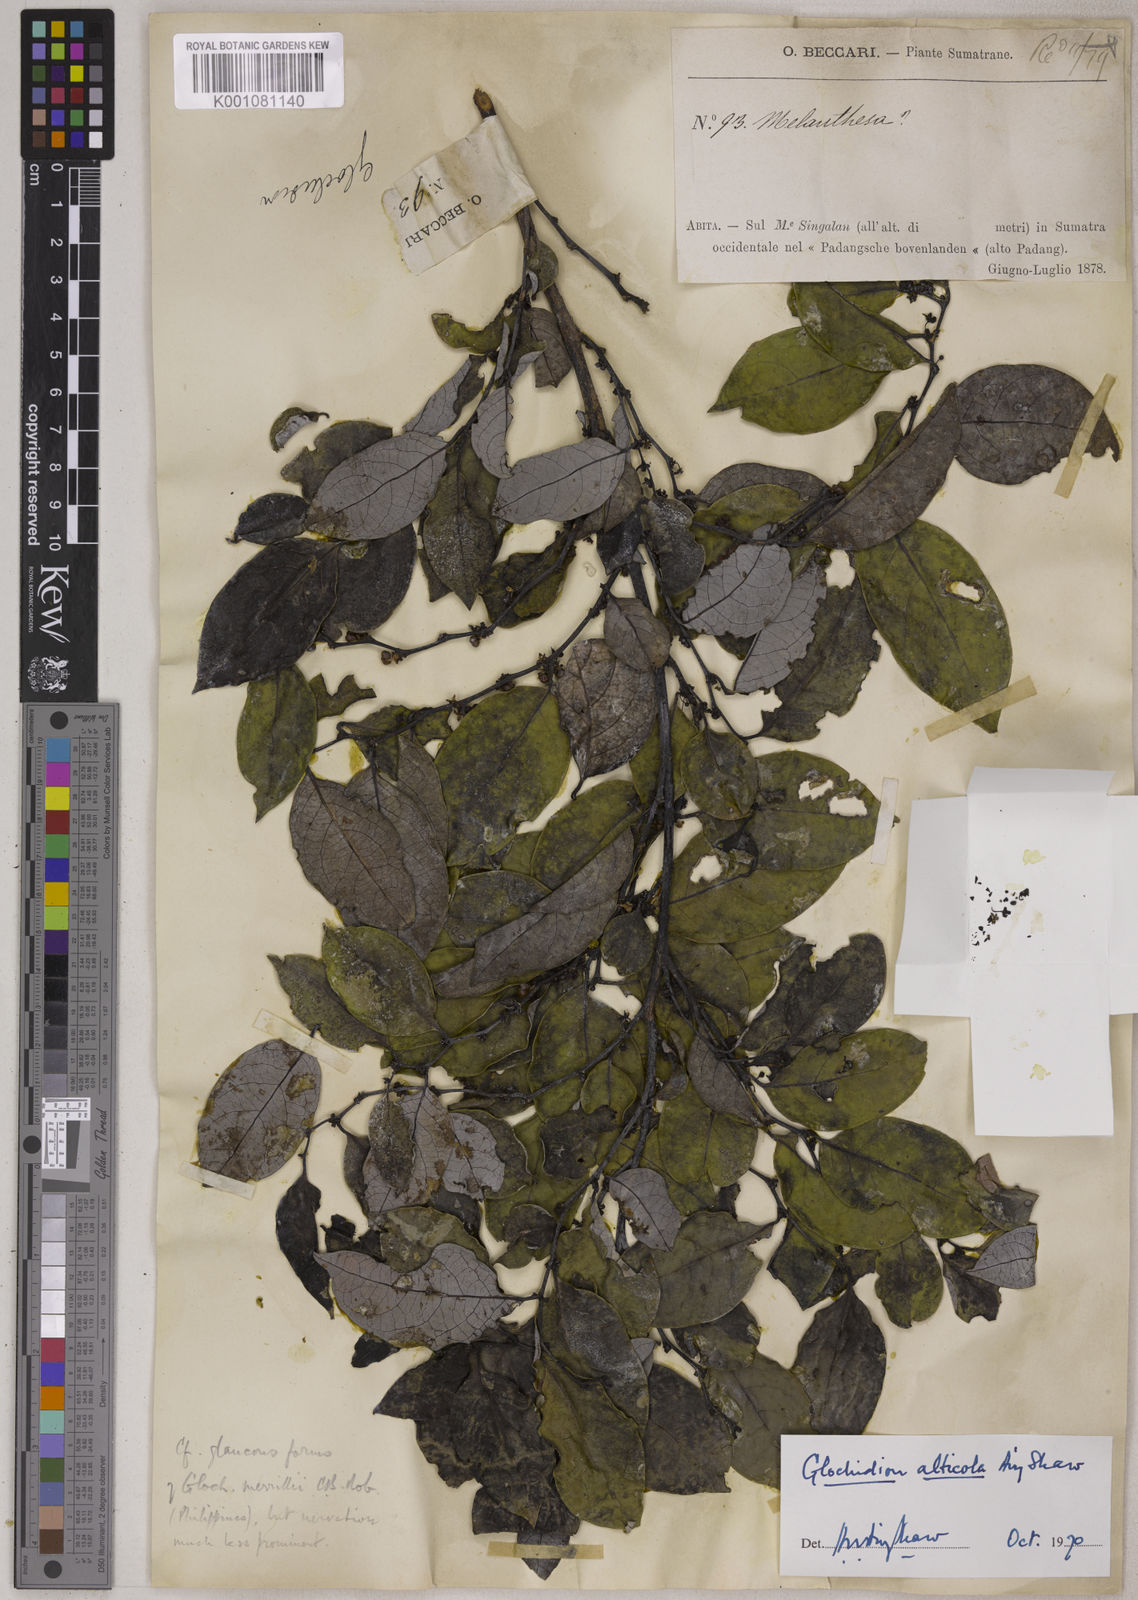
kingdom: Plantae
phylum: Tracheophyta
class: Magnoliopsida
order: Malpighiales
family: Phyllanthaceae
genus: Glochidion
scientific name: Glochidion alticola
